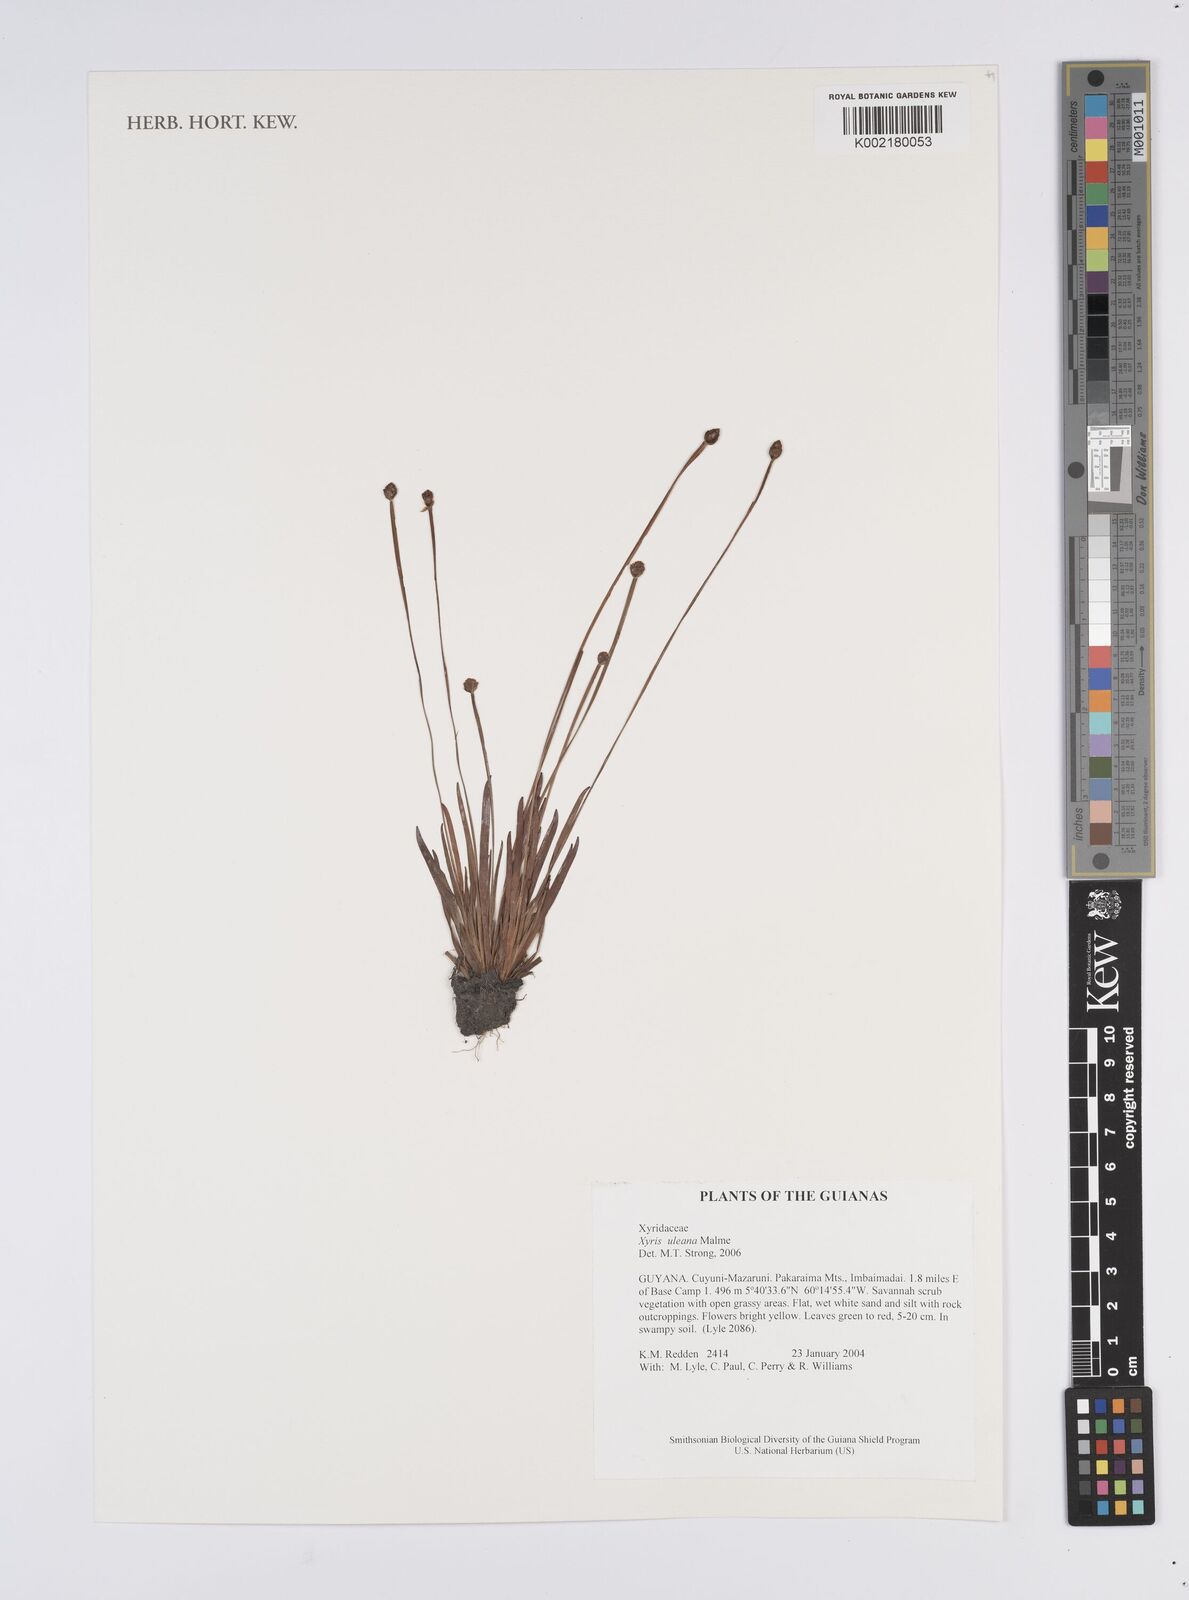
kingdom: Plantae
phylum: Tracheophyta
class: Liliopsida
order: Poales
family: Xyridaceae
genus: Xyris
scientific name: Xyris uleana
